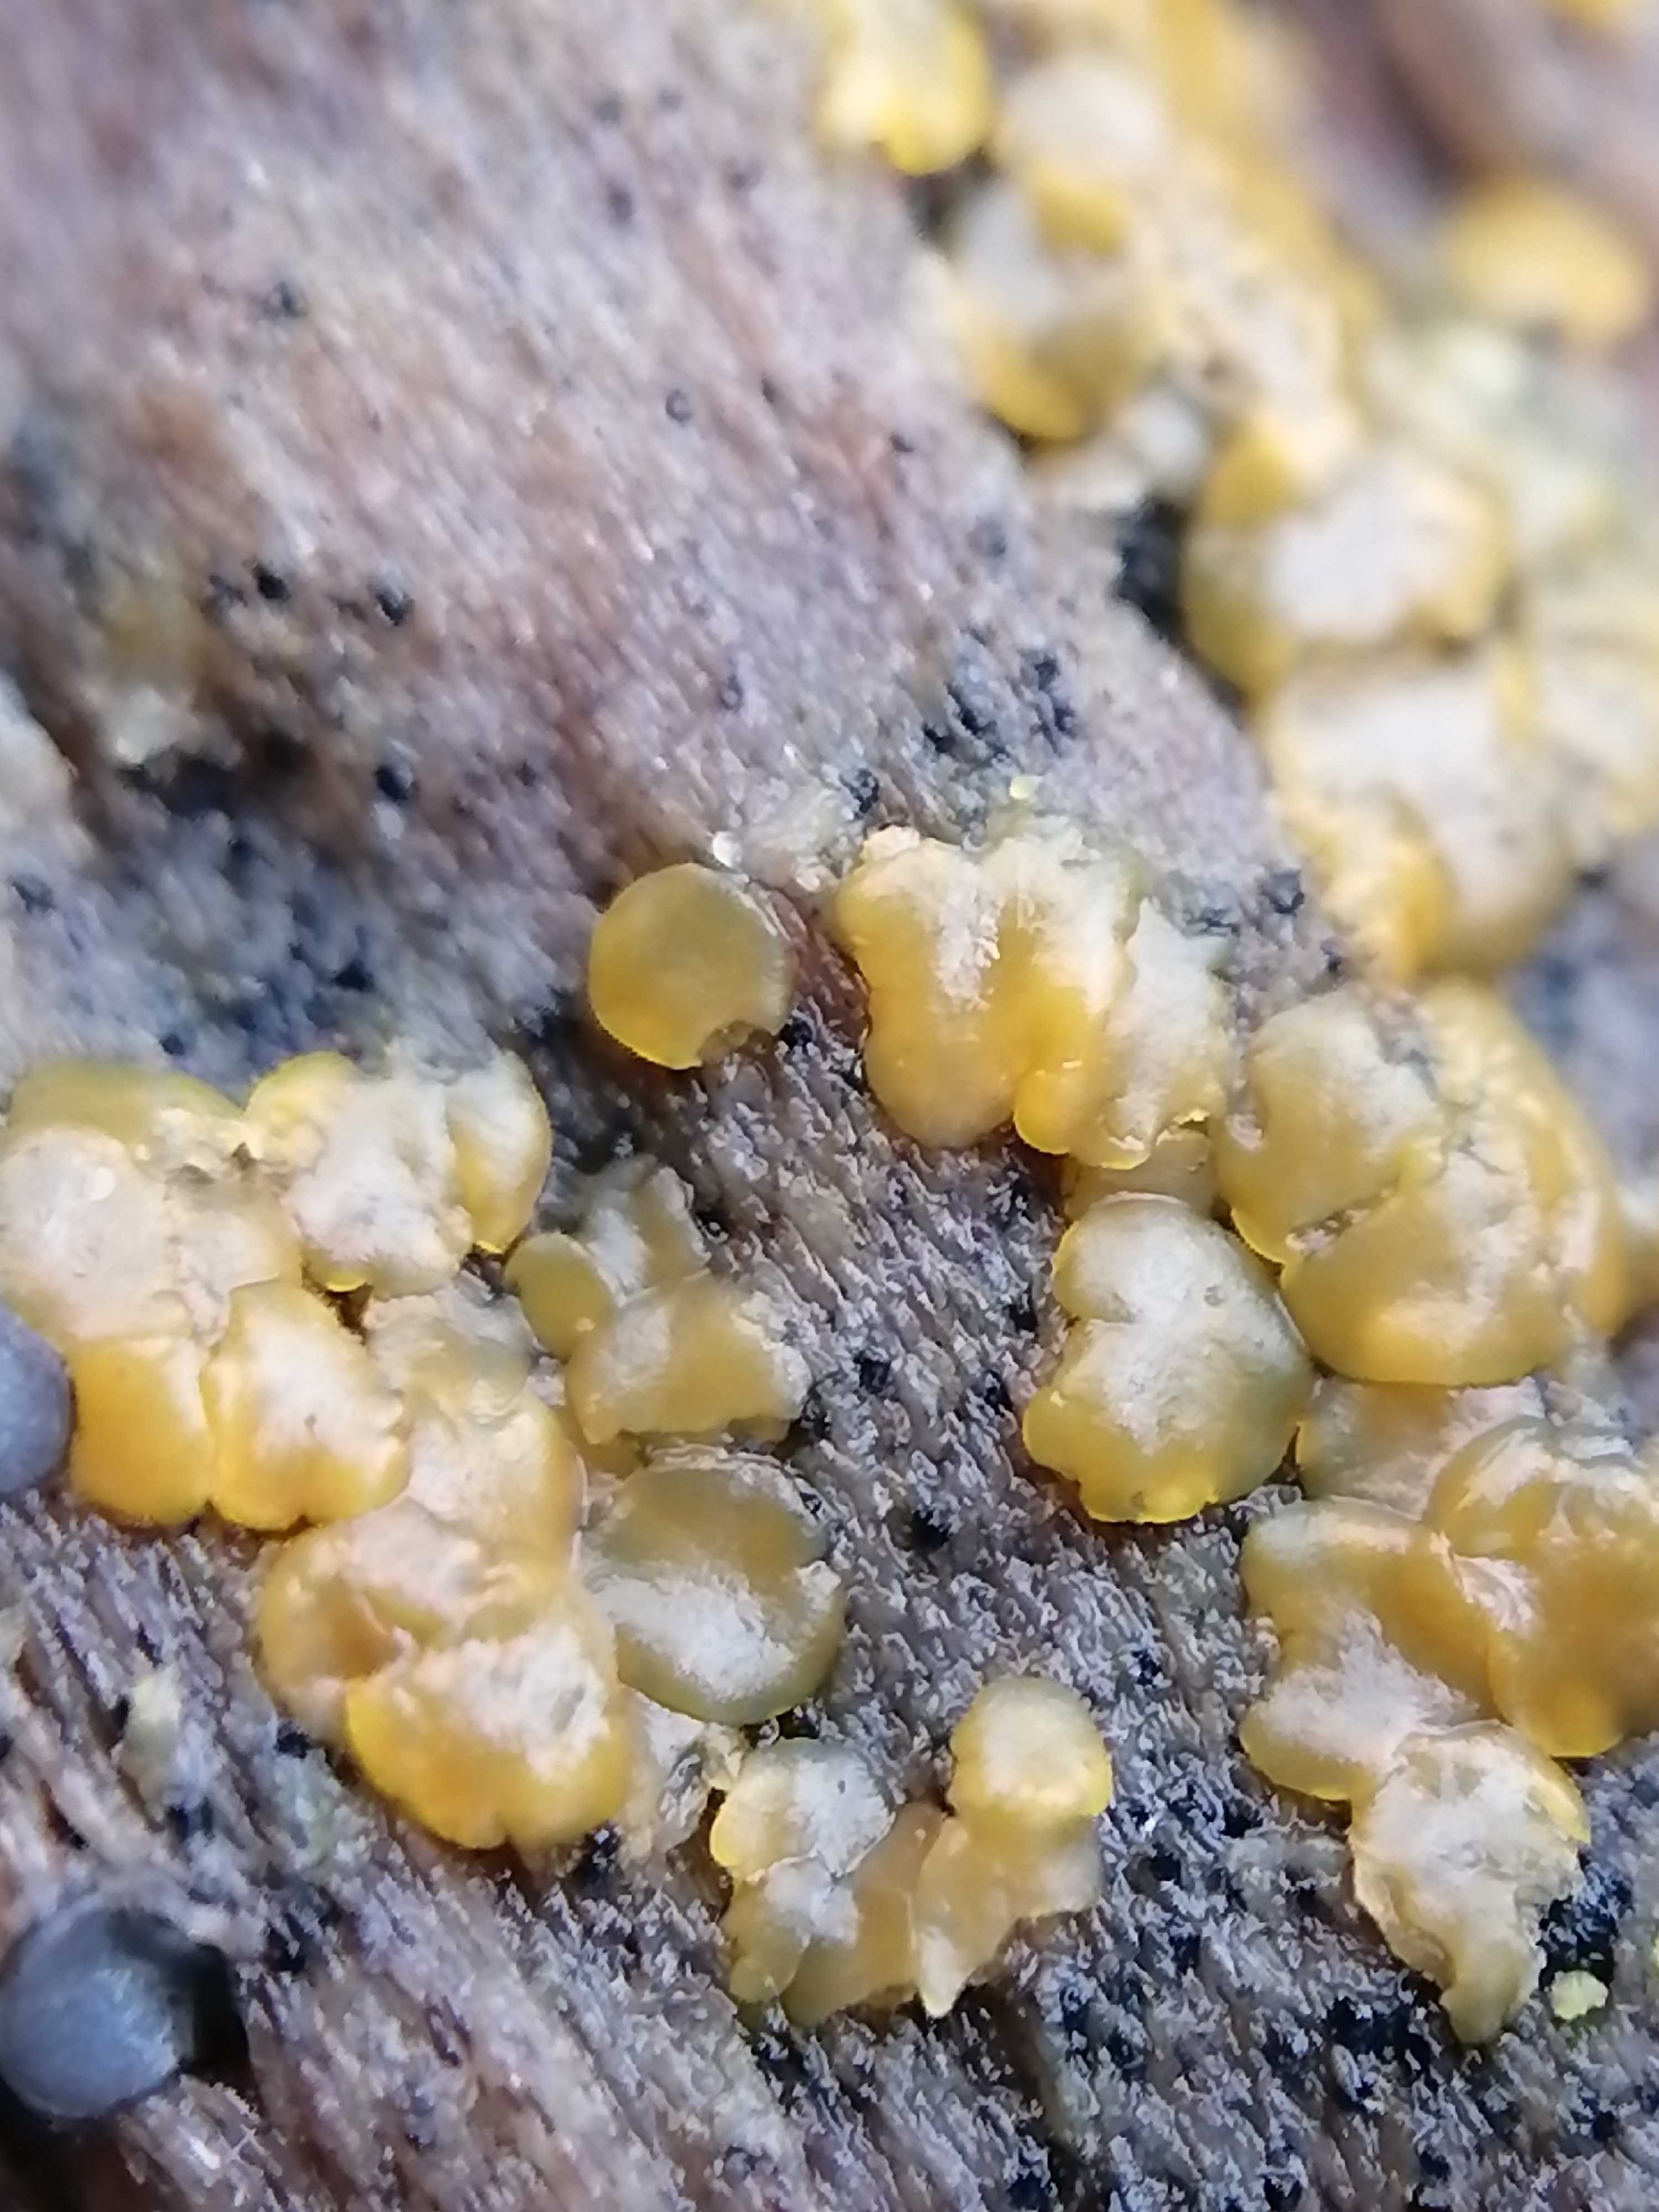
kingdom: Fungi
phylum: Ascomycota
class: Orbiliomycetes
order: Orbiliales
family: Orbiliaceae
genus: Orbilia
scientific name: Orbilia xanthostigma
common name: krumsporet voksskive
